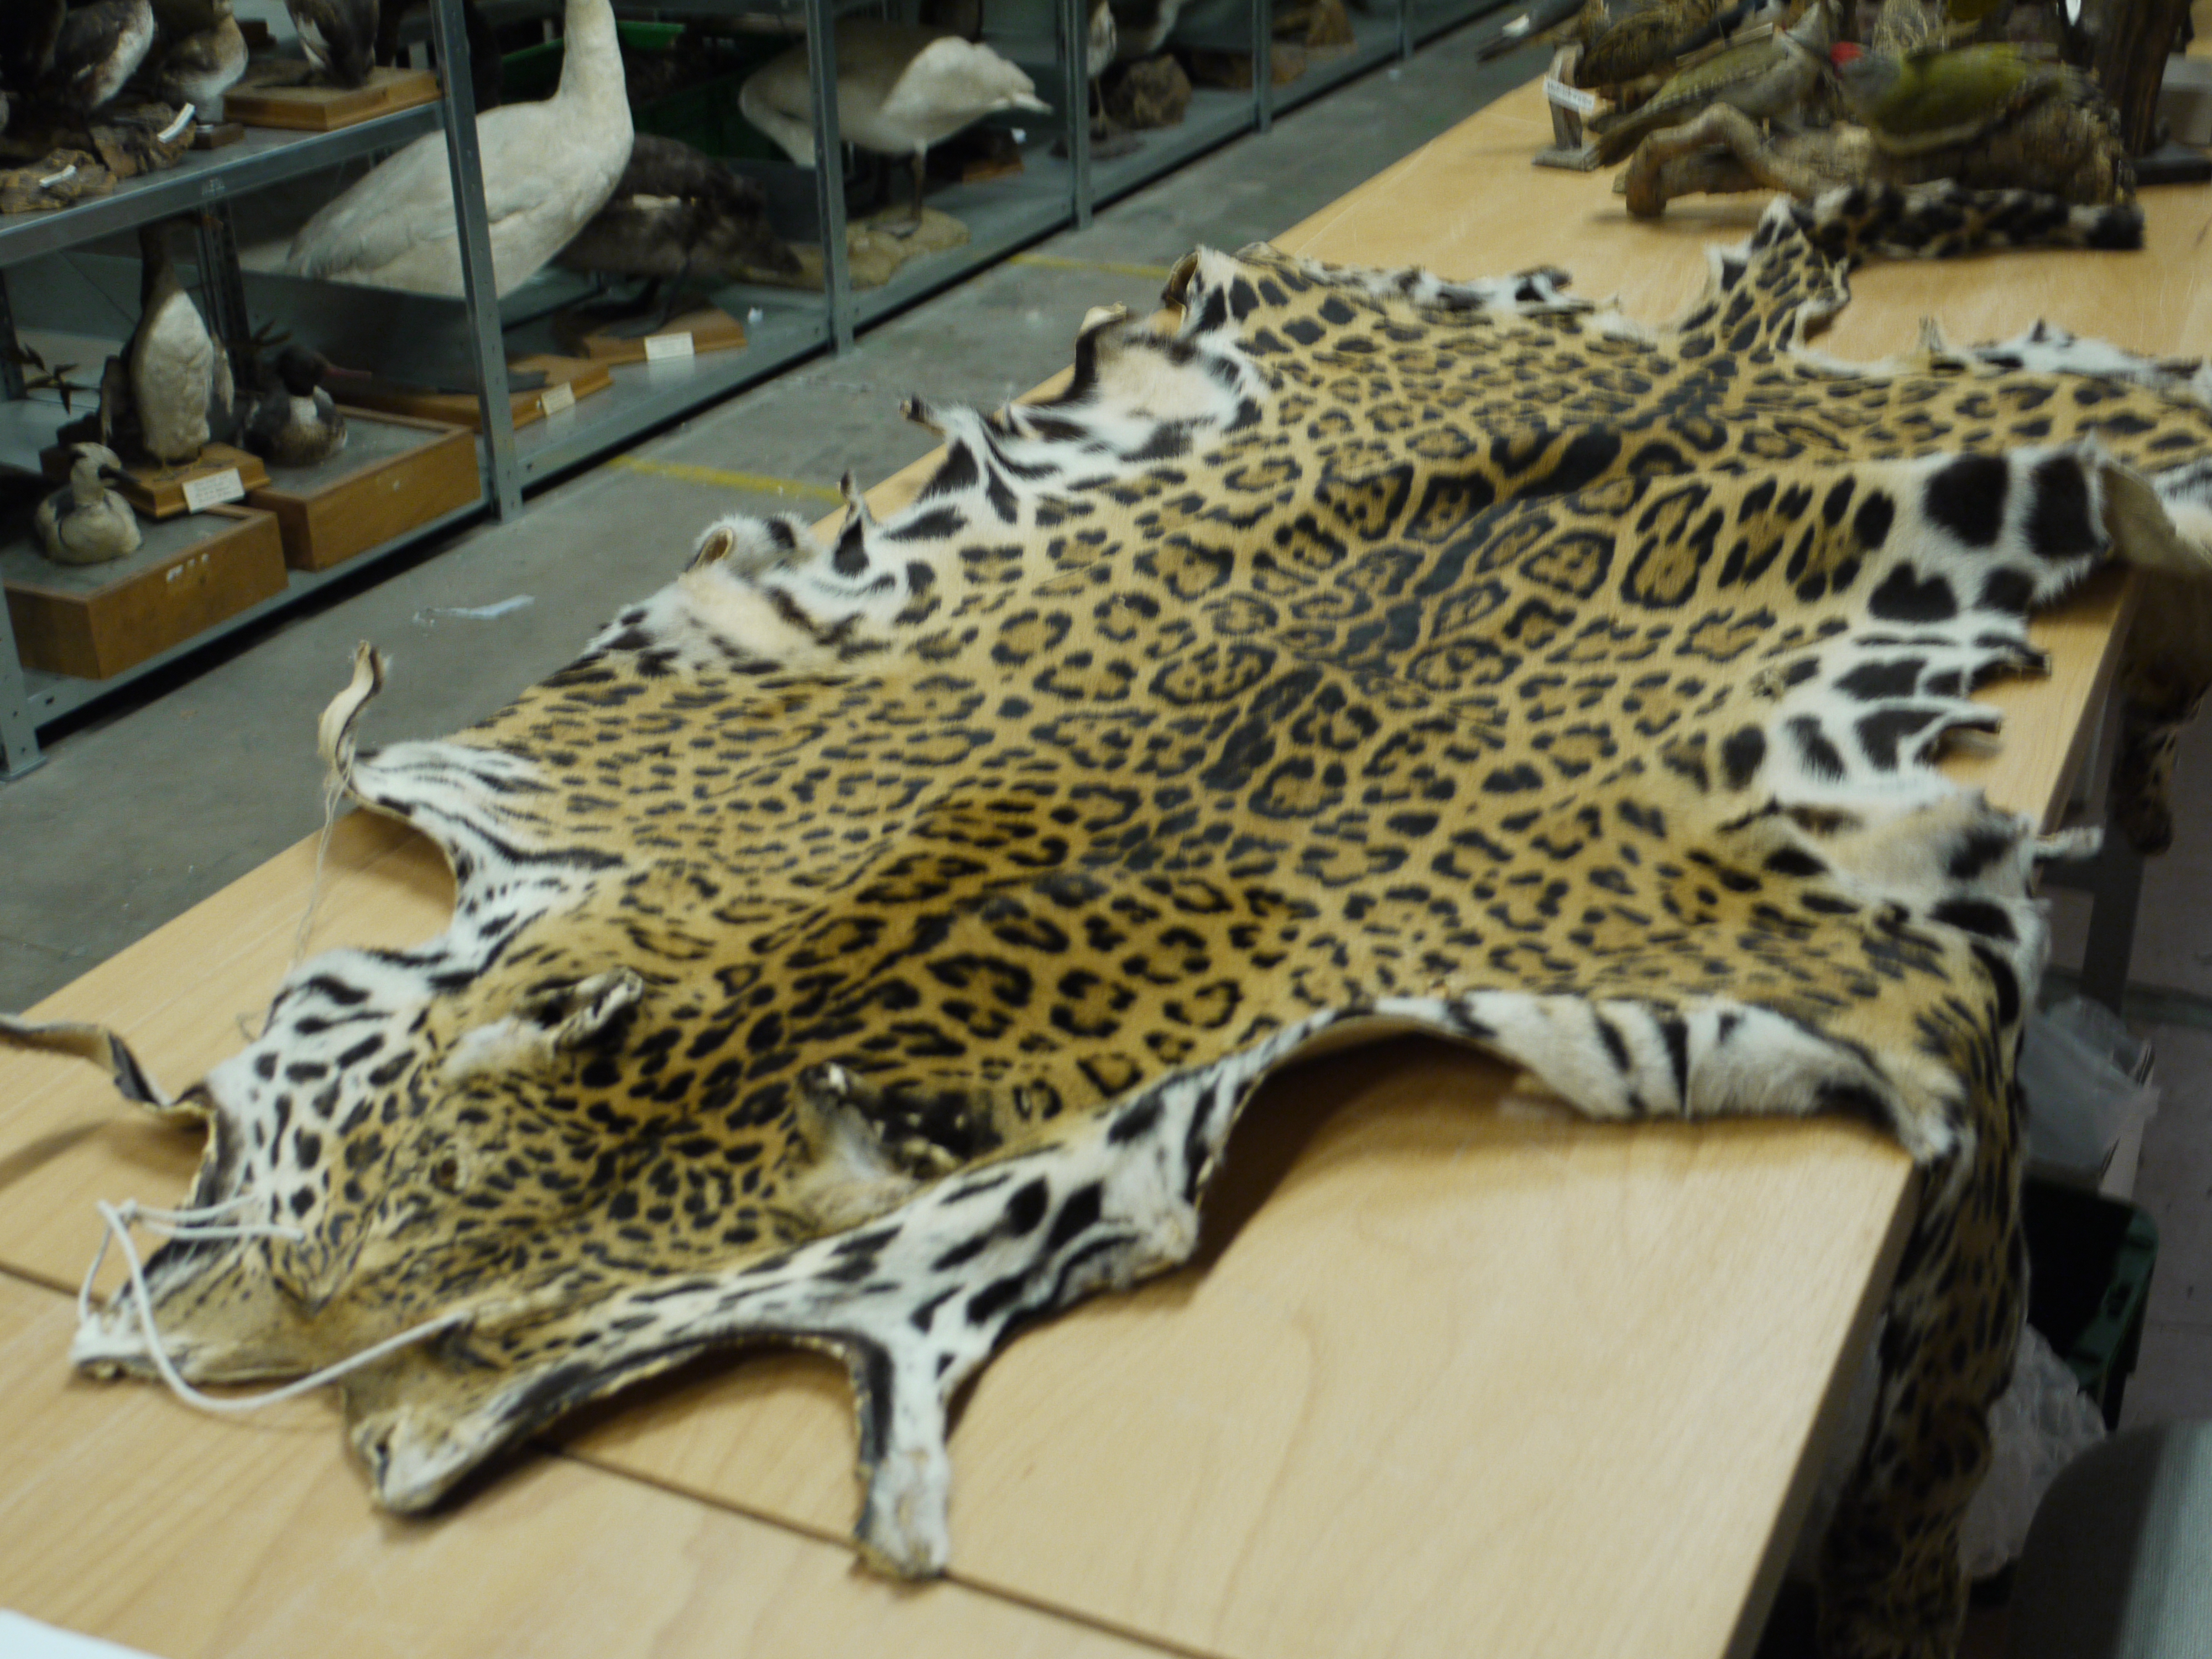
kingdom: Animalia
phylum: Chordata
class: Mammalia
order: Carnivora
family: Felidae
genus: Panthera
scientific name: Panthera onca
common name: Jaguar
